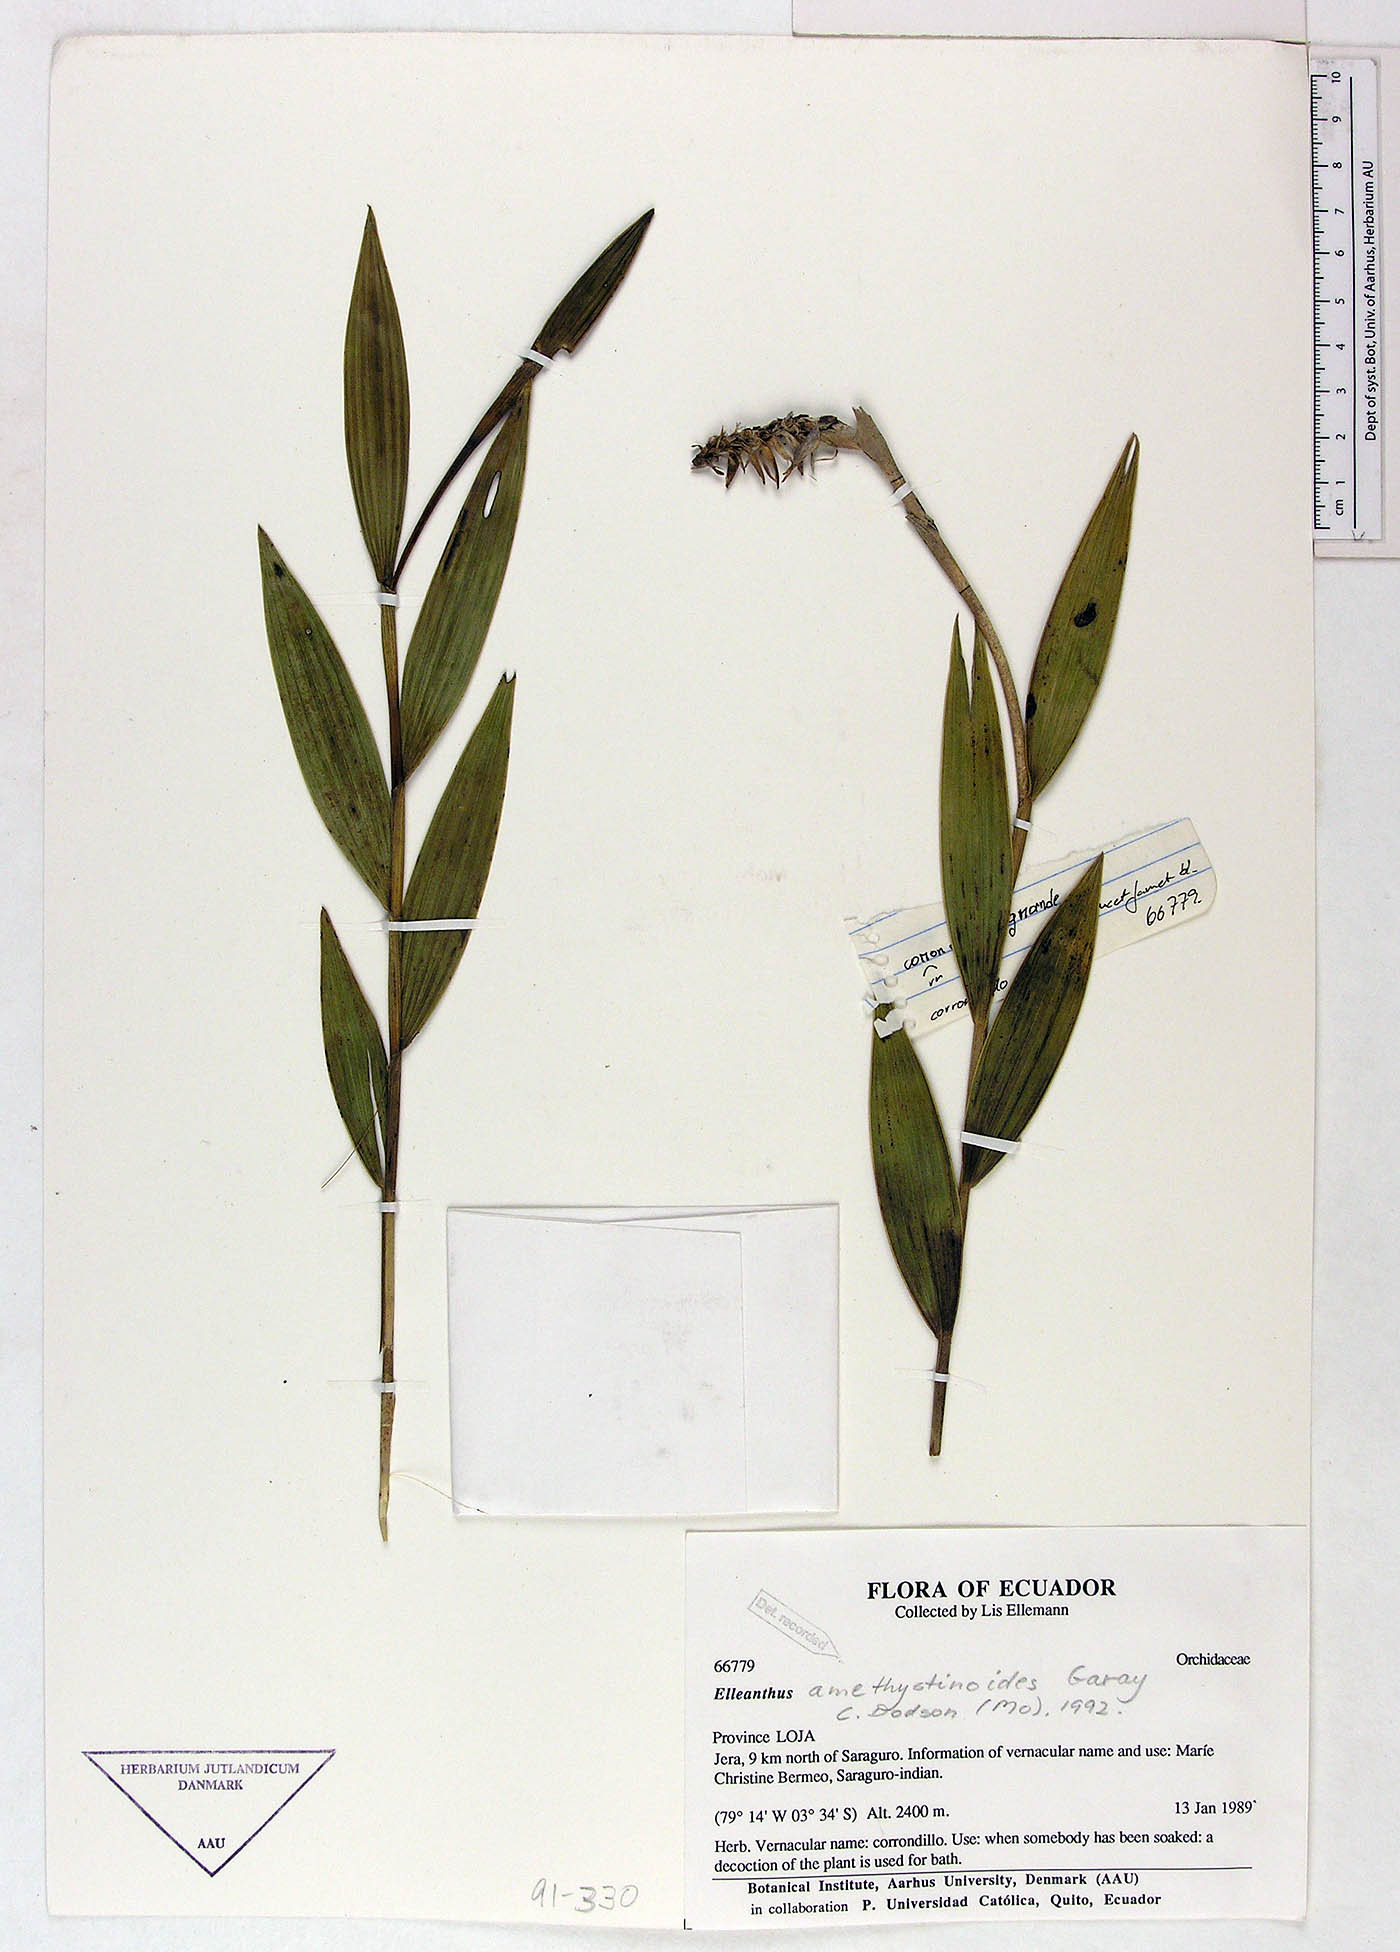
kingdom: Plantae
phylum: Tracheophyta
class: Liliopsida
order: Asparagales
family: Orchidaceae
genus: Elleanthus
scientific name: Elleanthus amethystinoides
